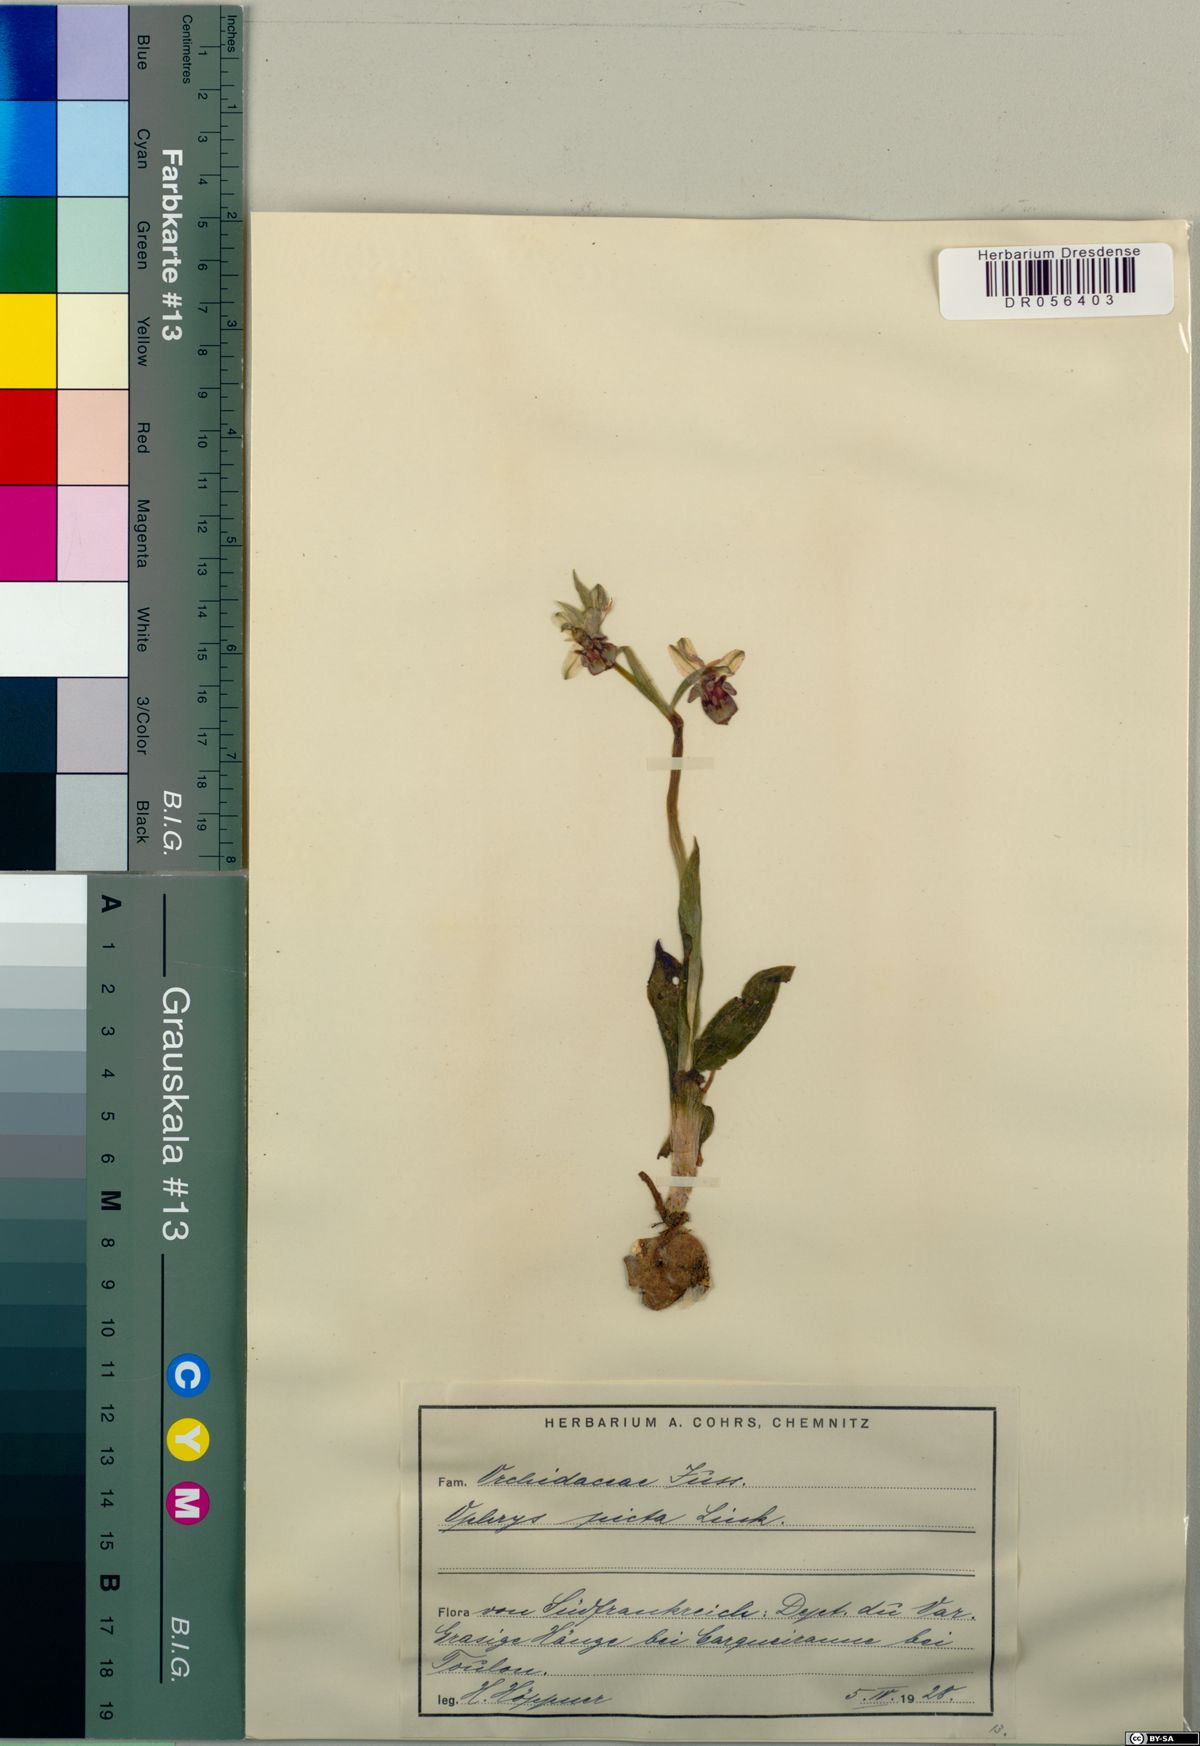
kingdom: Plantae
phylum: Tracheophyta
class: Liliopsida
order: Asparagales
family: Orchidaceae
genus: Ophrys
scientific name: Ophrys scolopax
